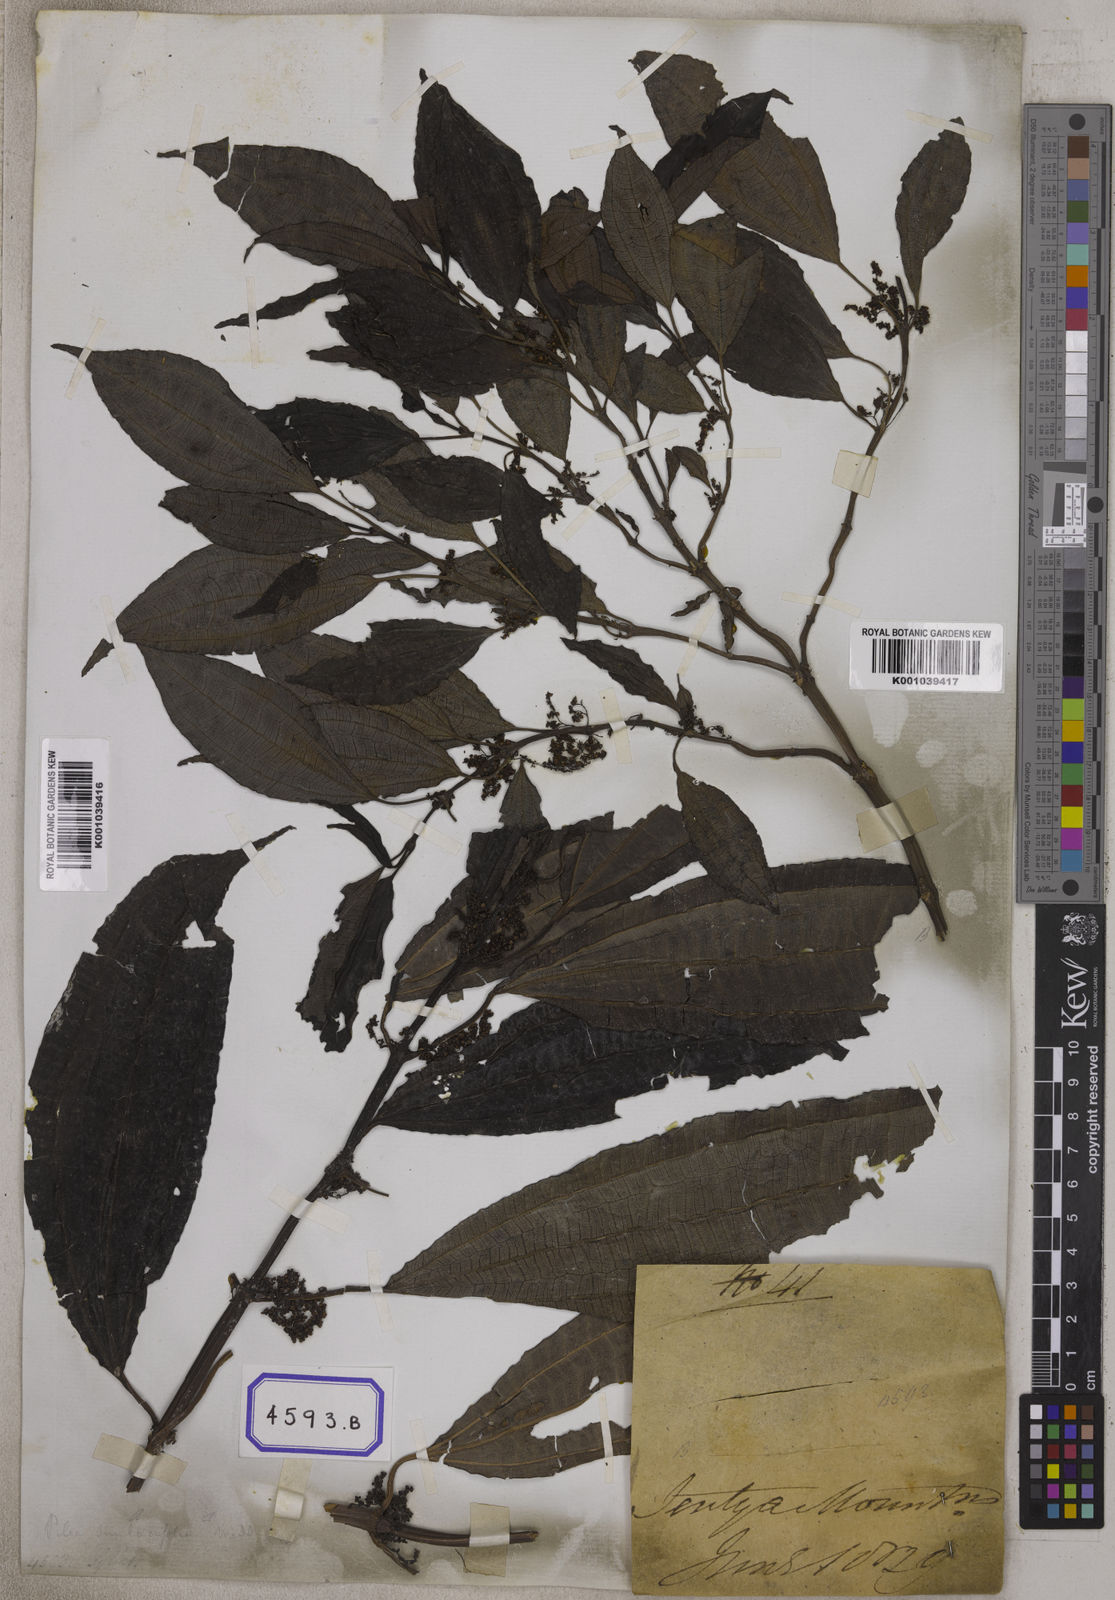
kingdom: Plantae
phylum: Tracheophyta
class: Magnoliopsida
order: Rosales
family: Urticaceae
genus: Urtica
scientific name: Urtica
